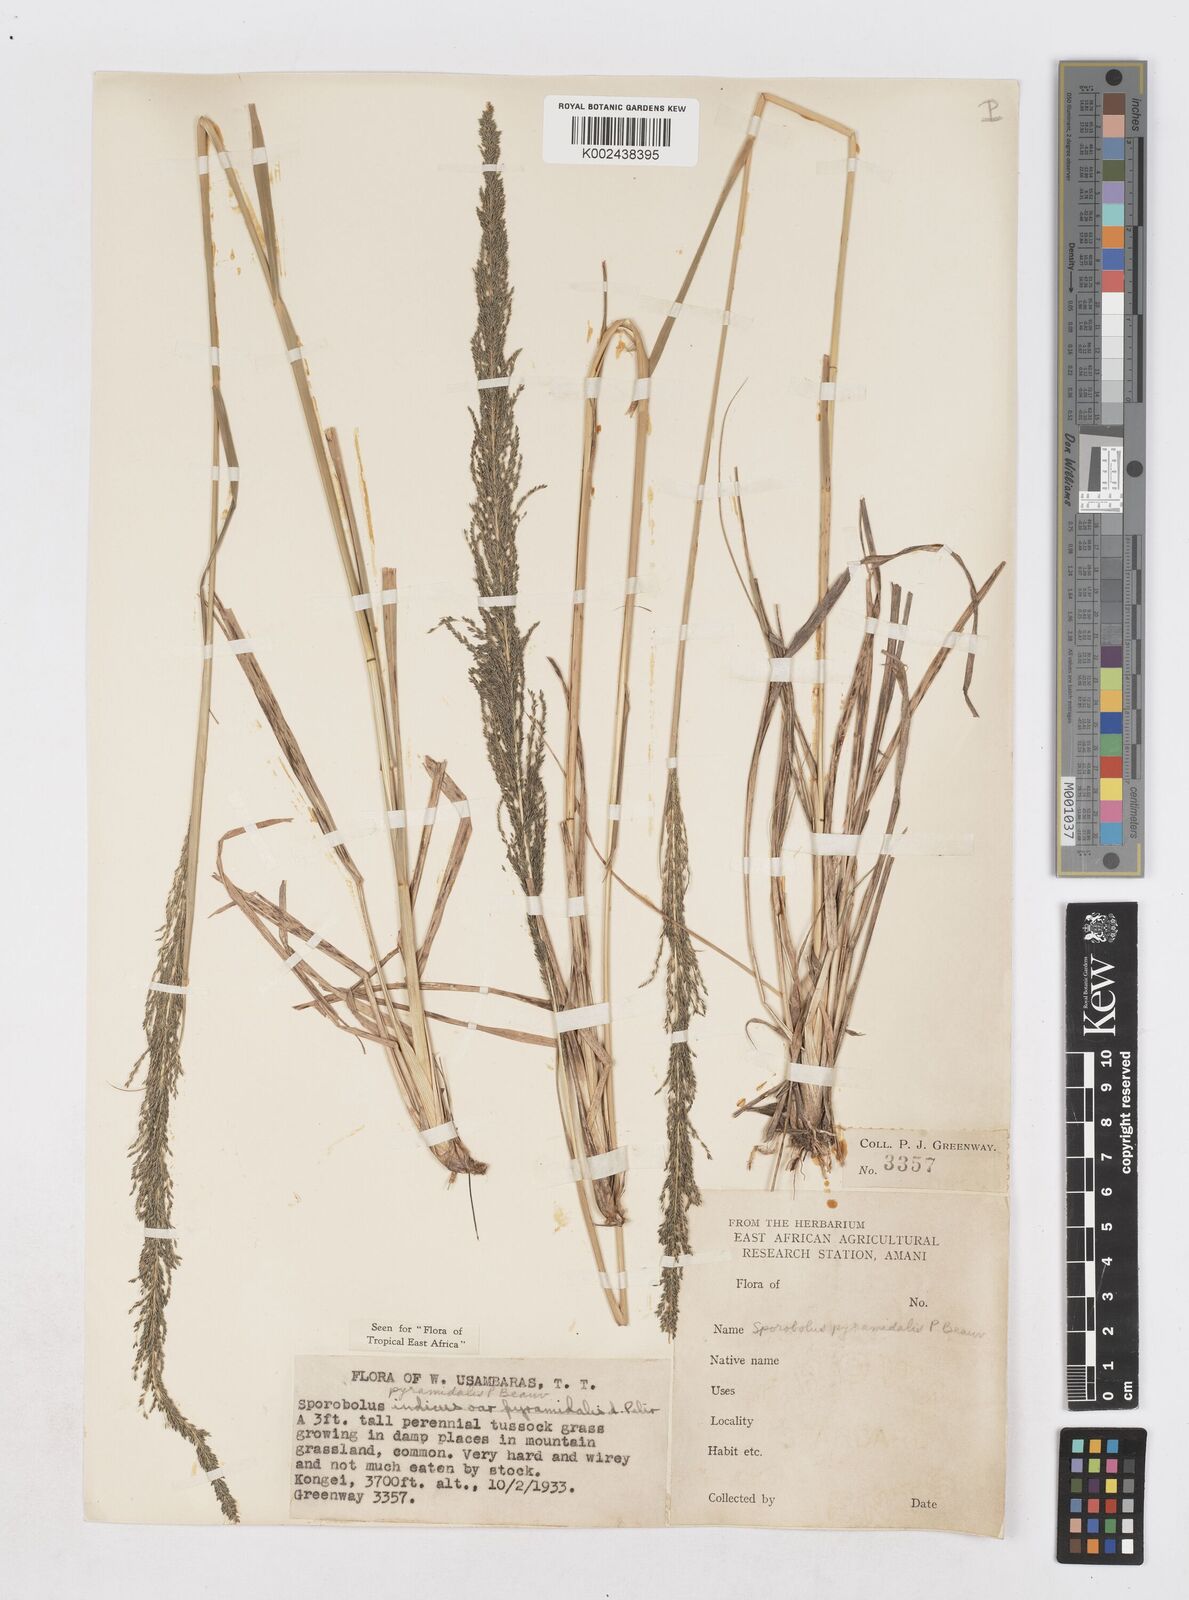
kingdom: Plantae
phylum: Tracheophyta
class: Liliopsida
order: Poales
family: Poaceae
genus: Sporobolus
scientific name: Sporobolus pyramidalis
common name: West indian dropseed
